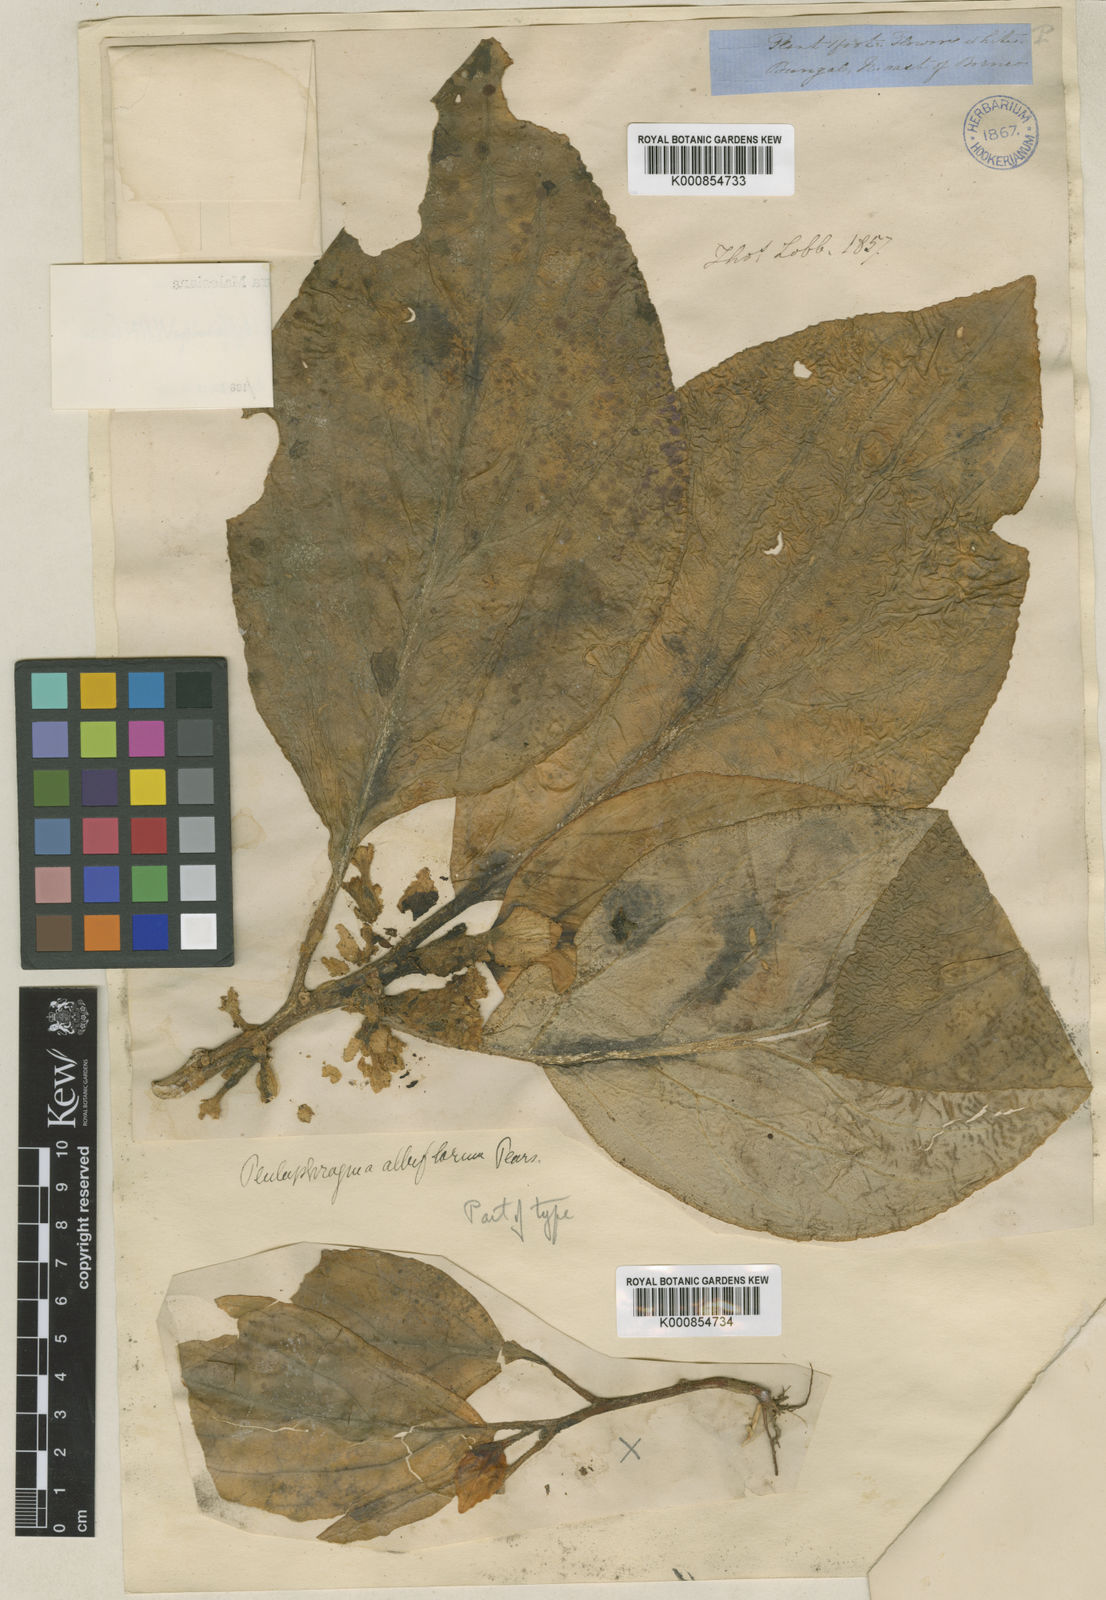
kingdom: Plantae
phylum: Tracheophyta
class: Magnoliopsida
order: Asterales
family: Pentaphragmataceae
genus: Pentaphragma
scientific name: Pentaphragma albiflorum
